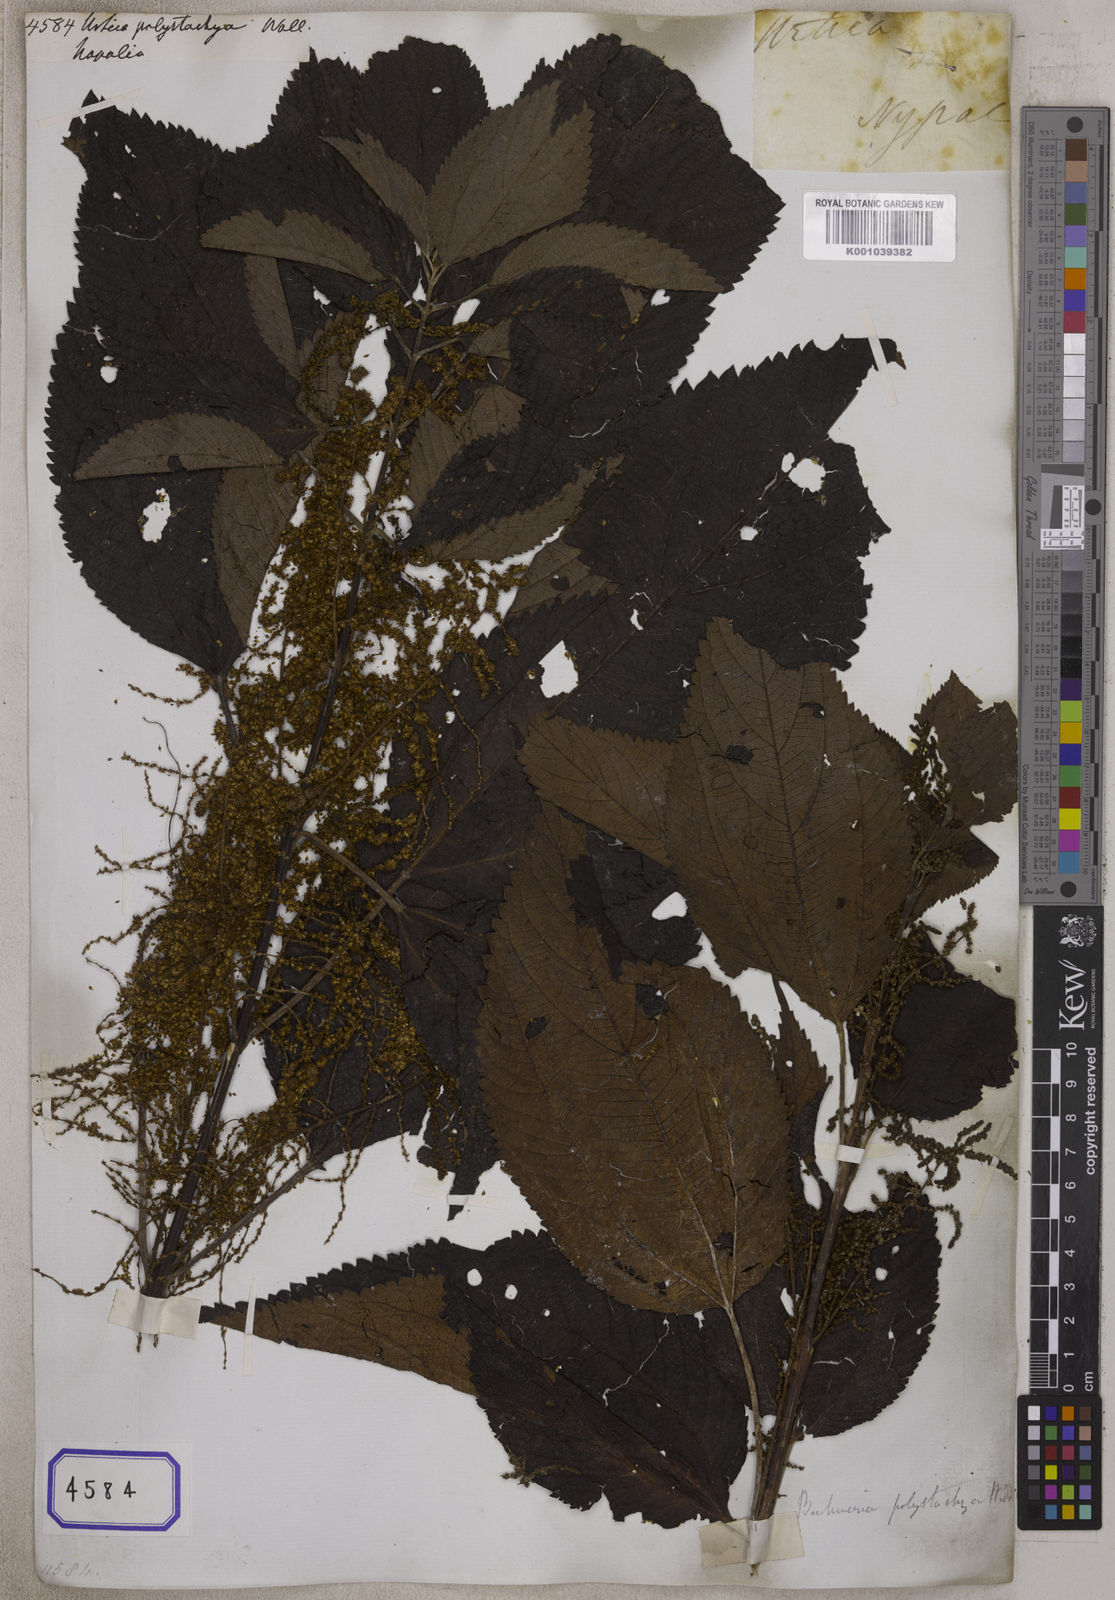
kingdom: Plantae
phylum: Tracheophyta
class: Magnoliopsida
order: Rosales
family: Urticaceae
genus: Boehmeria
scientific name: Boehmeria polystachya
